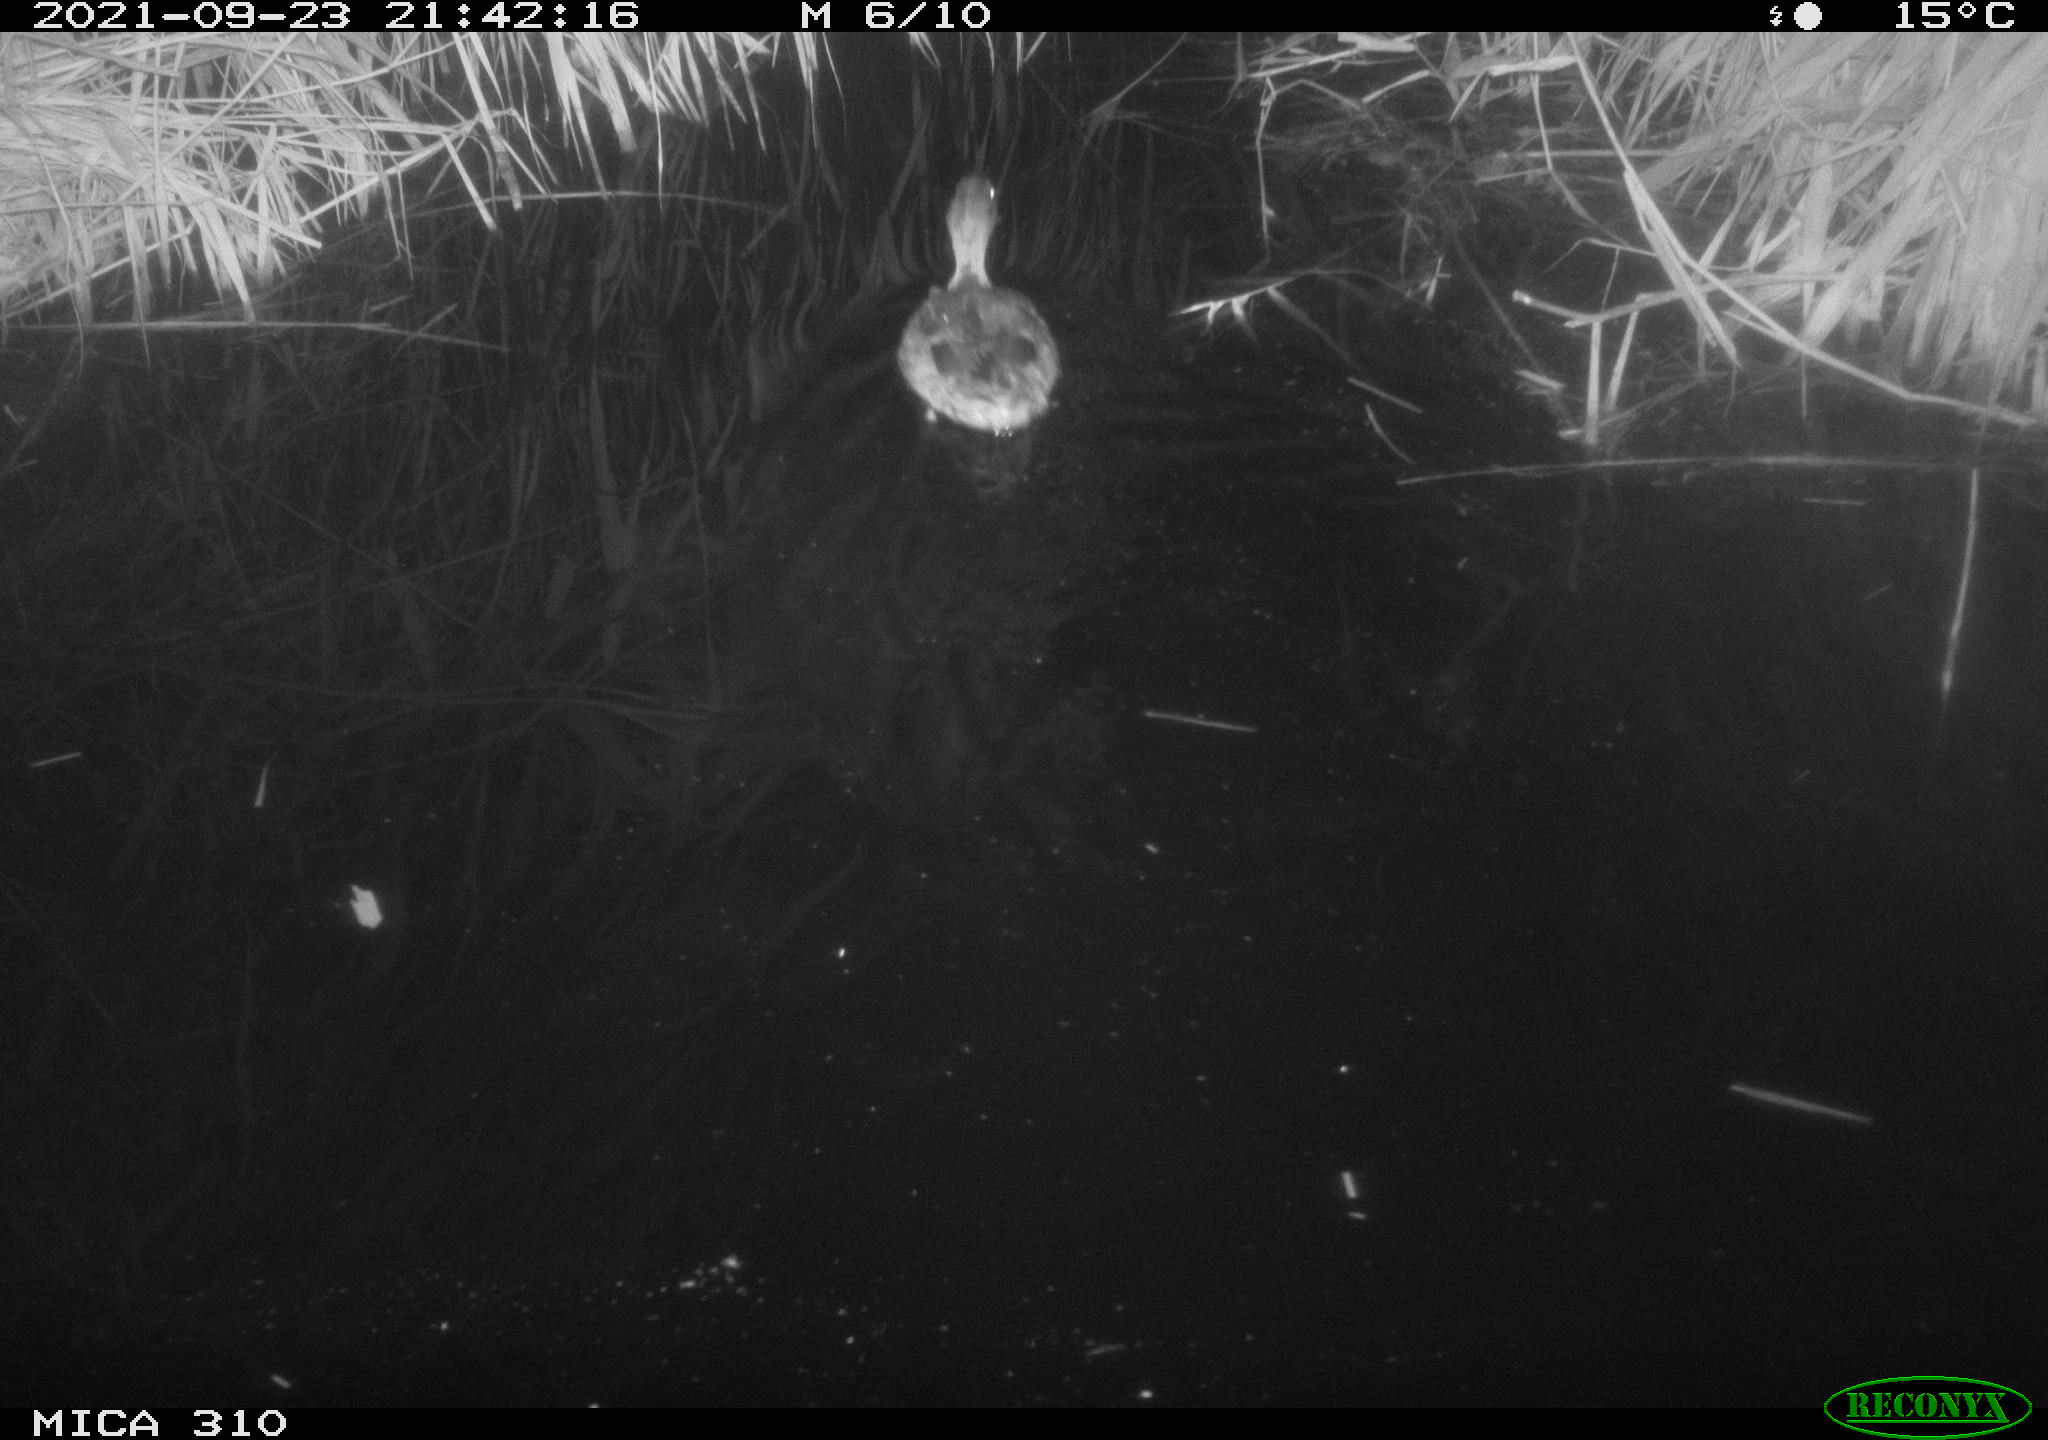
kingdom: Animalia
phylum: Chordata
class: Aves
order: Anseriformes
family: Anatidae
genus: Anas
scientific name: Anas platyrhynchos
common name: Mallard
